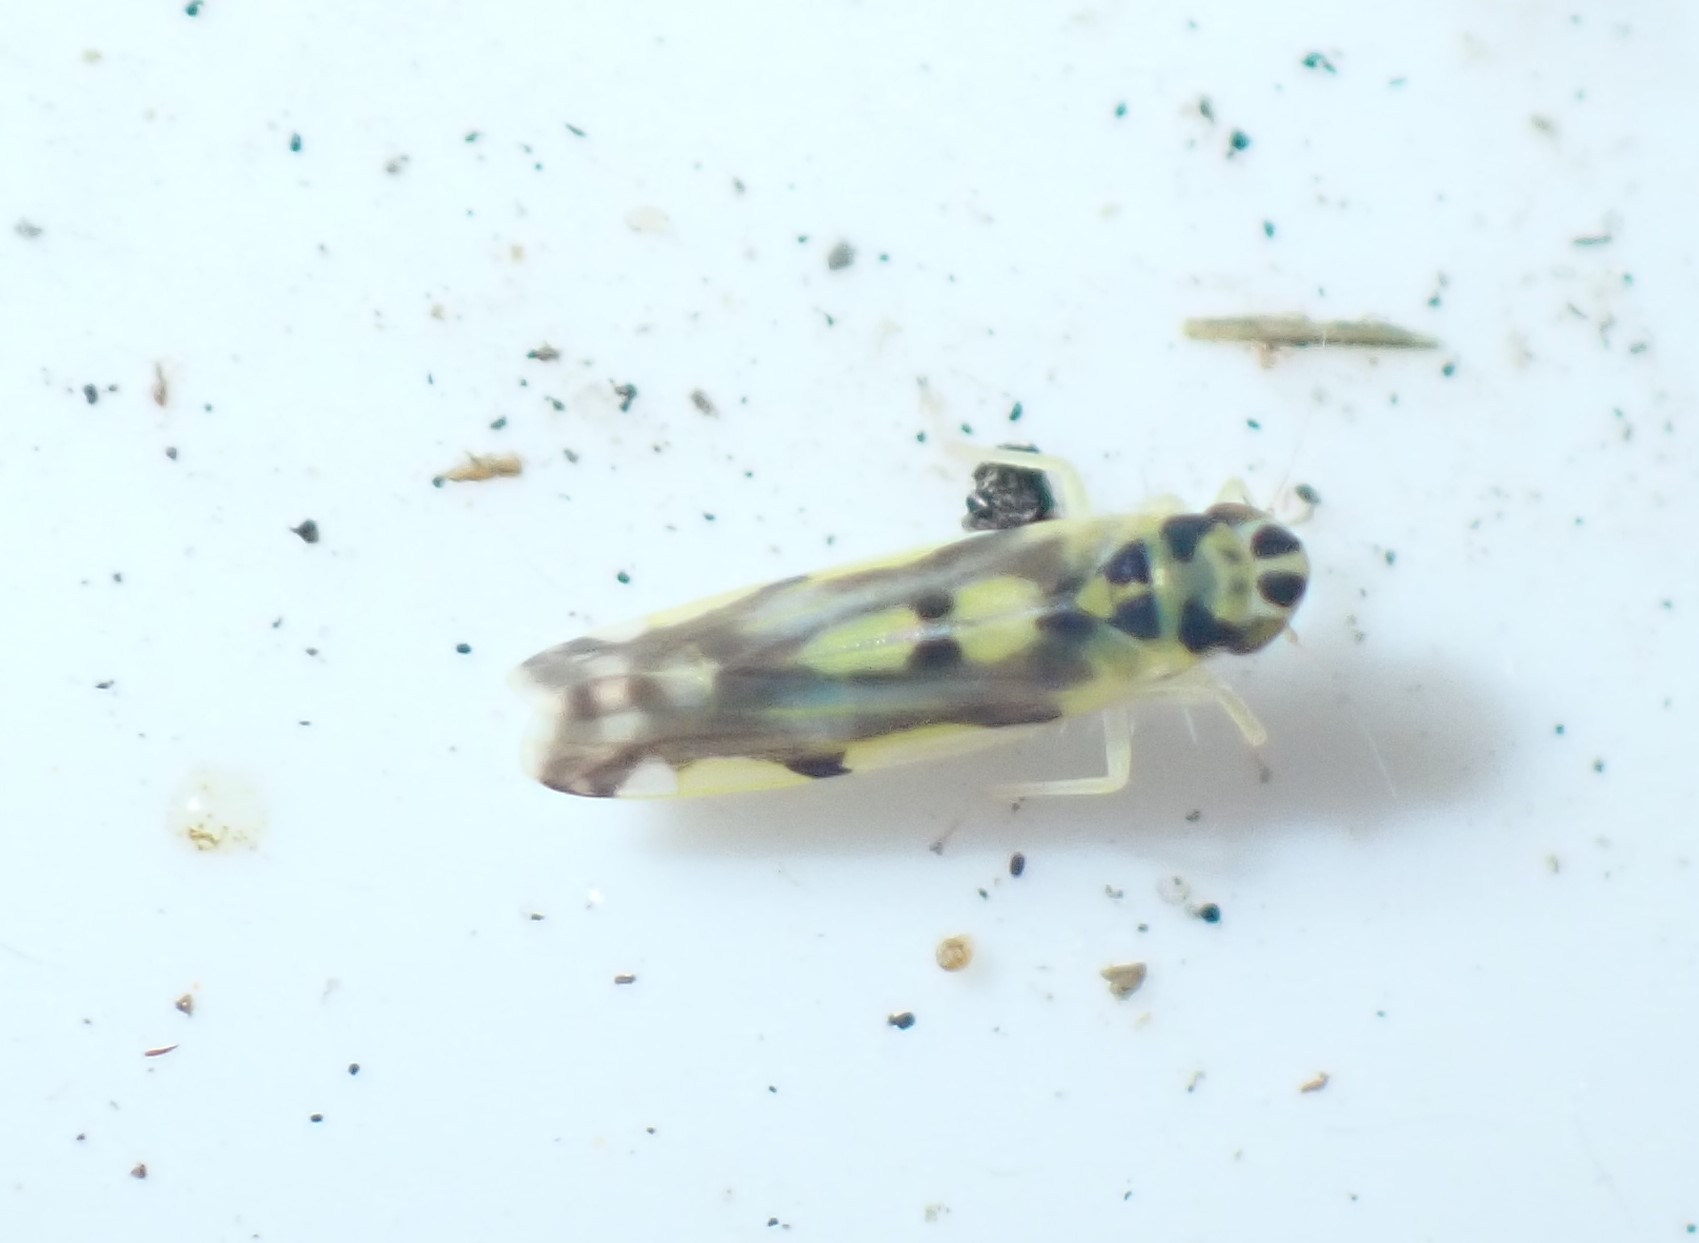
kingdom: Animalia
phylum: Arthropoda
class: Insecta
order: Hemiptera
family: Cicadellidae
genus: Eupteryx
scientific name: Eupteryx aurata
